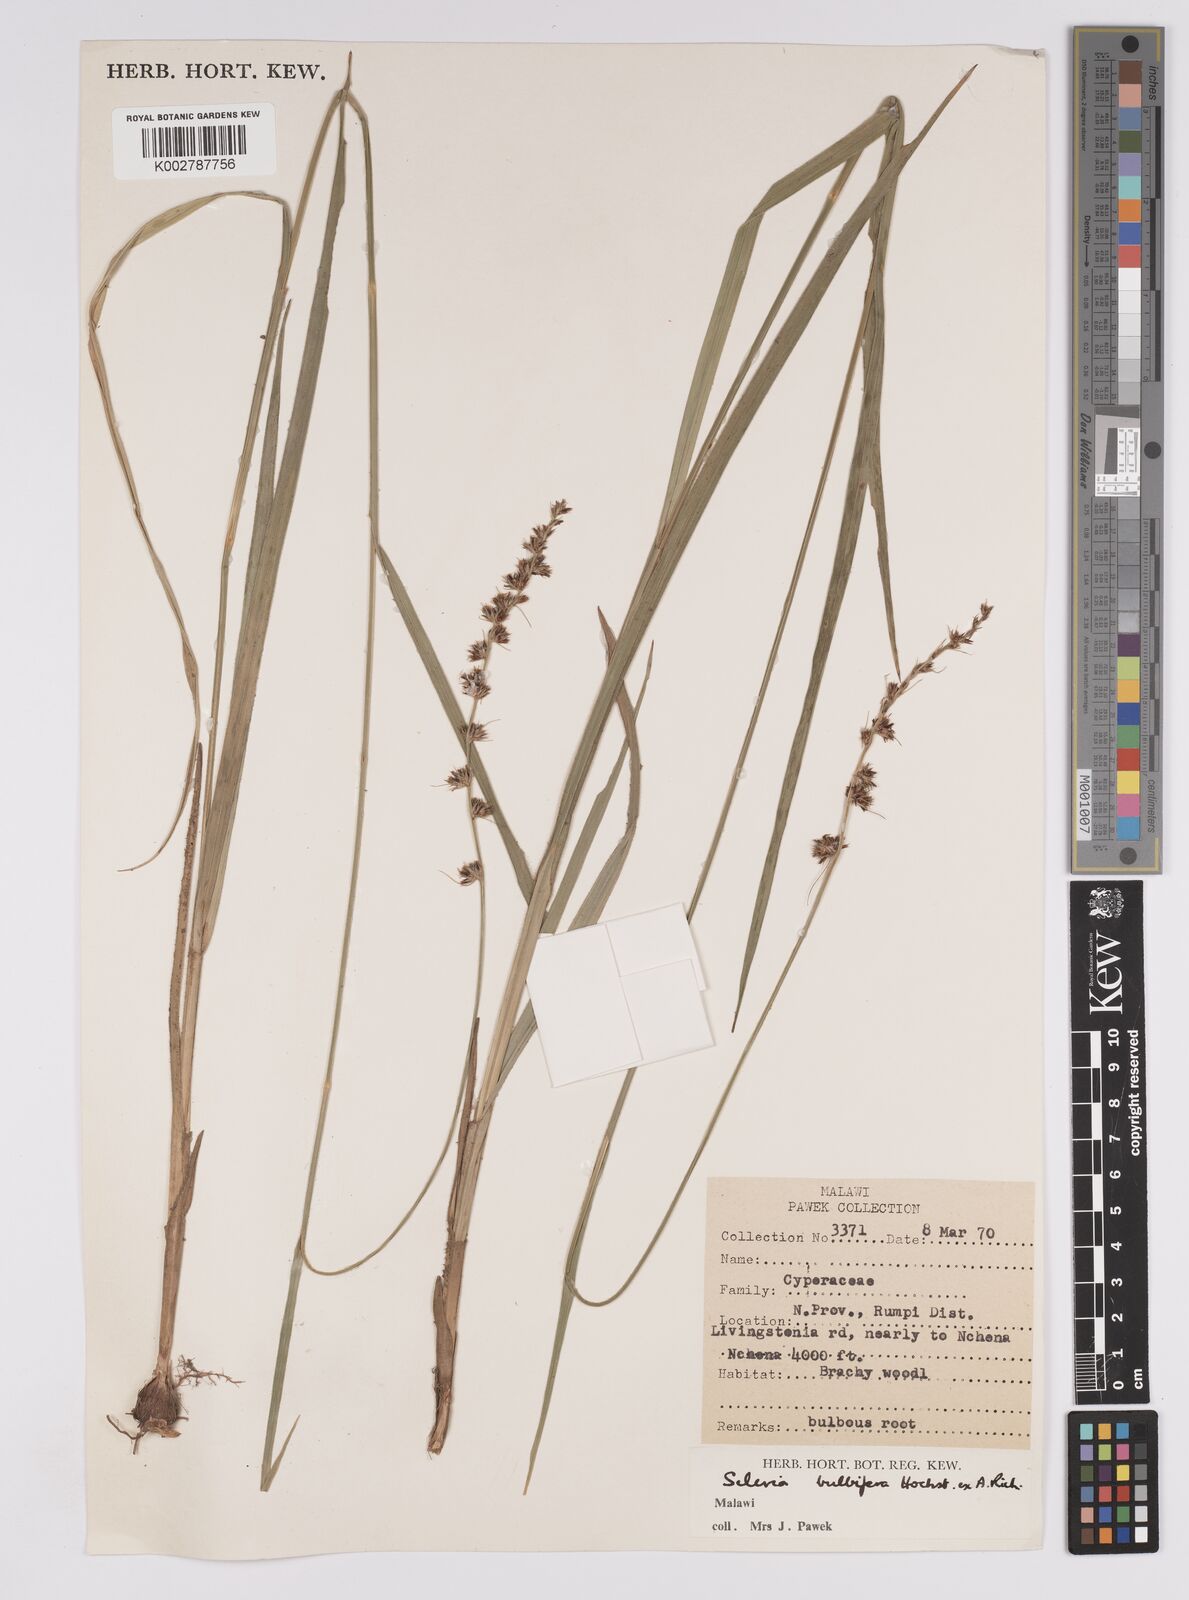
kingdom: Plantae
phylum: Tracheophyta
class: Liliopsida
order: Poales
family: Cyperaceae
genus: Scleria
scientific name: Scleria bulbifera
